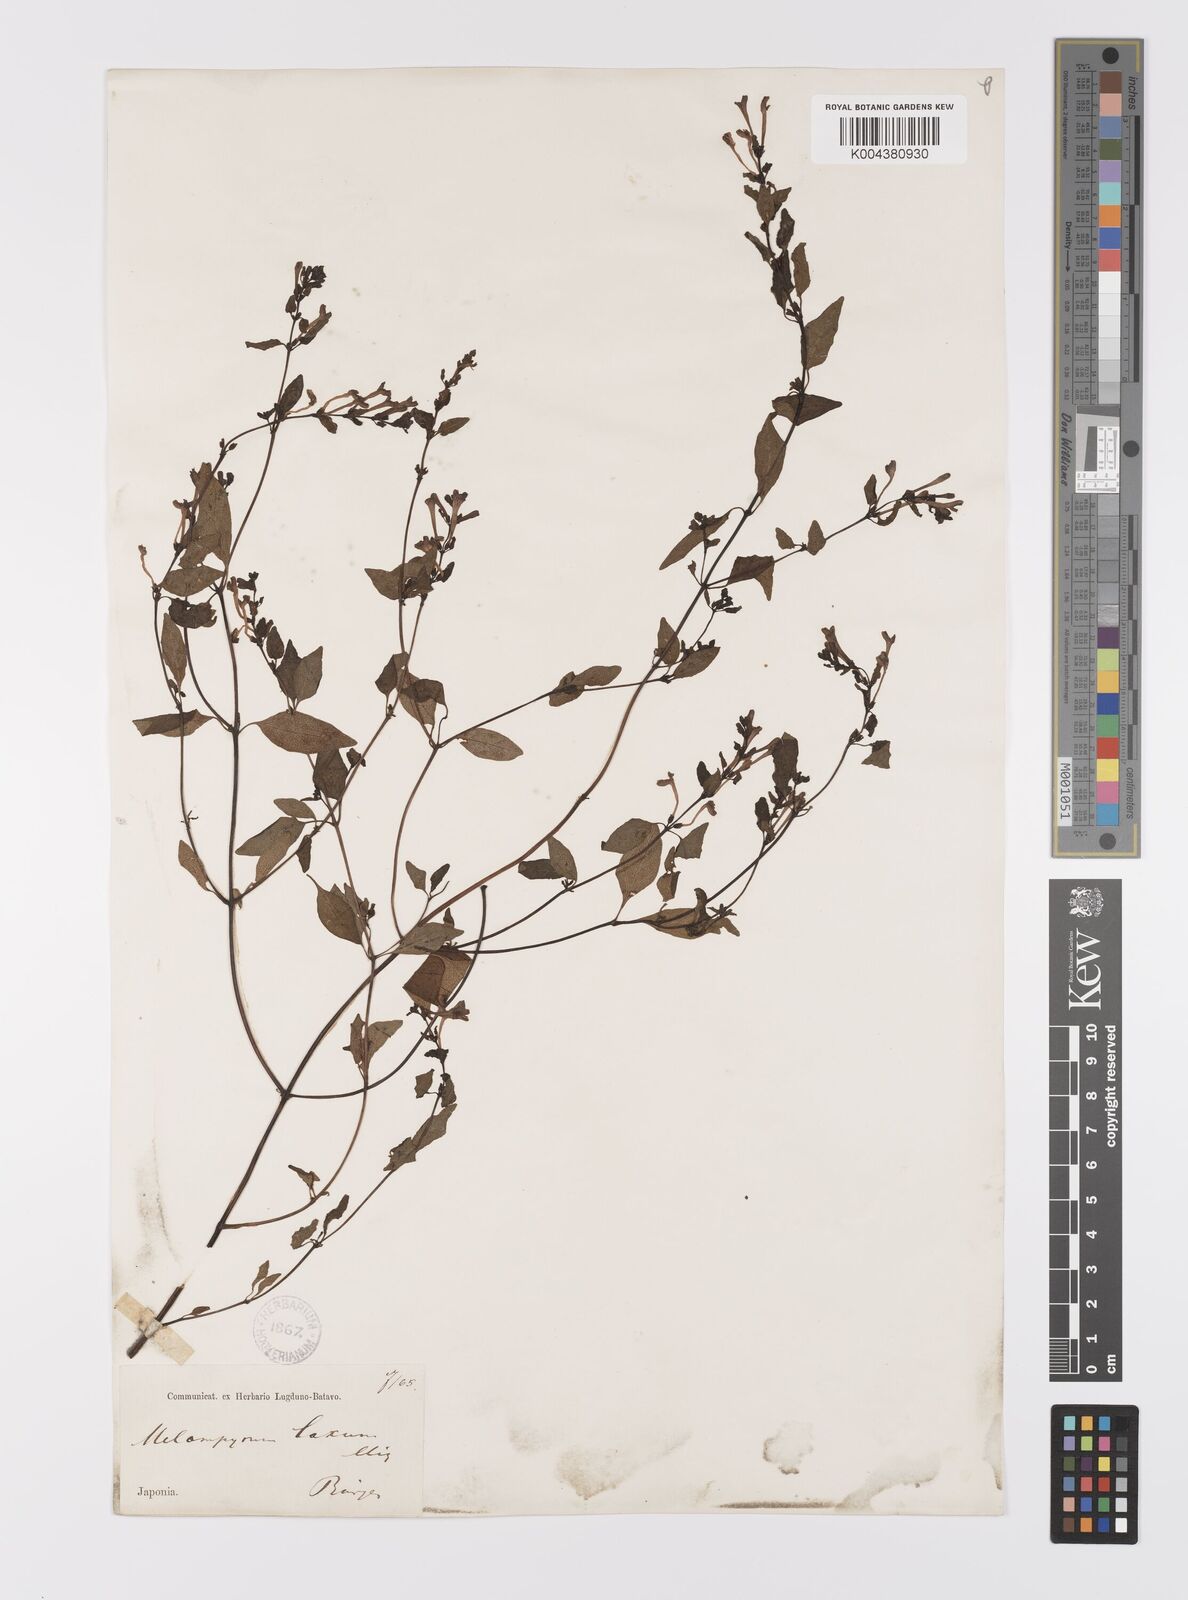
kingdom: Plantae
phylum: Tracheophyta
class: Magnoliopsida
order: Lamiales
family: Orobanchaceae
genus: Melampyrum
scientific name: Melampyrum laxum
